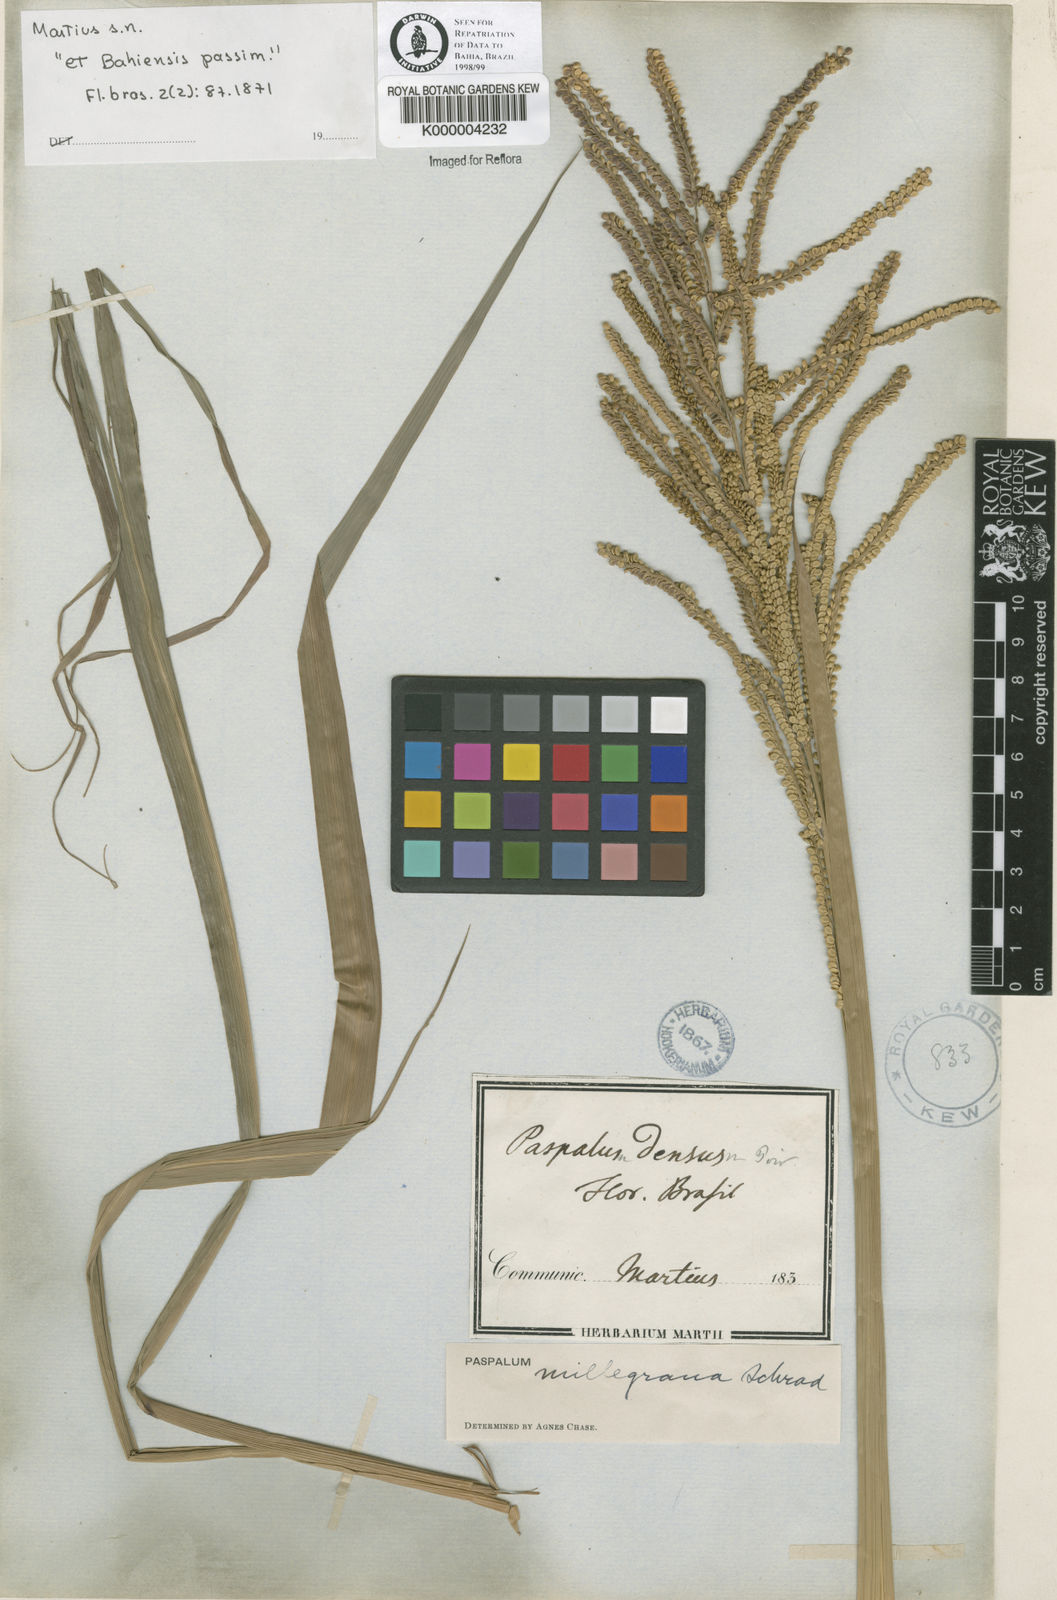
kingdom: Plantae
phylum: Tracheophyta
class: Liliopsida
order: Poales
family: Poaceae
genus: Paspalum
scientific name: Paspalum millegranum
